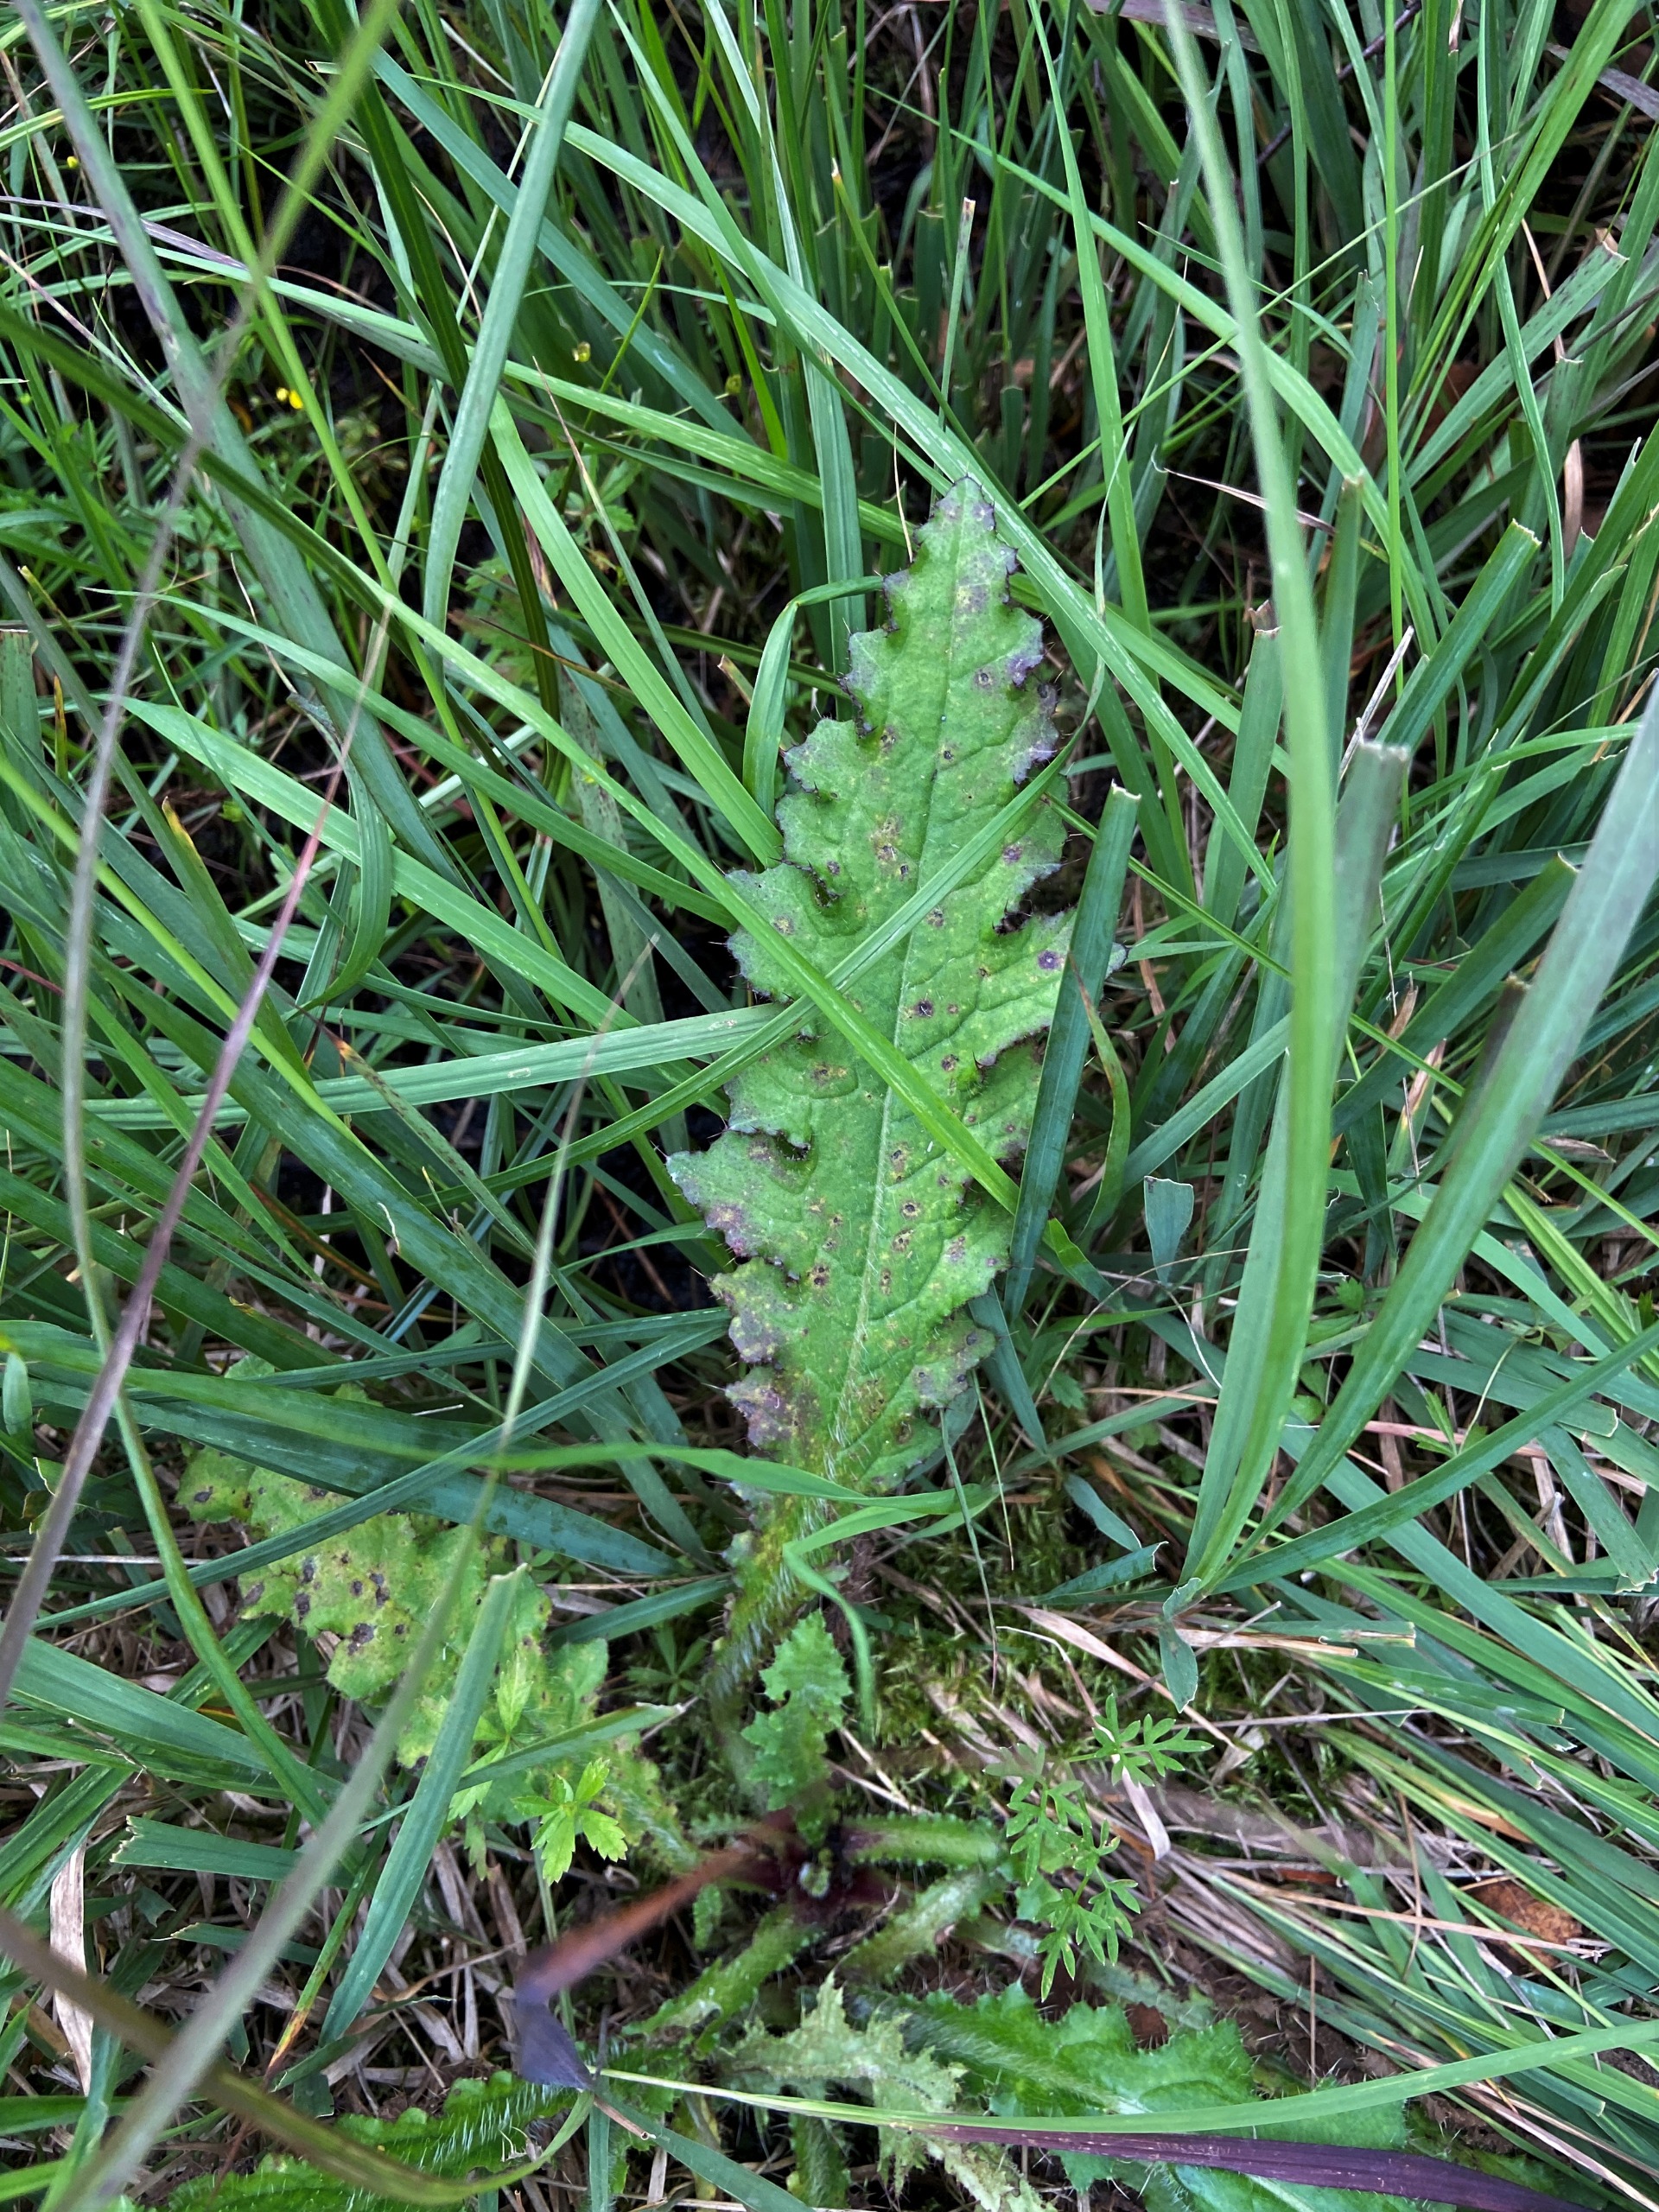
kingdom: Plantae
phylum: Tracheophyta
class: Magnoliopsida
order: Asterales
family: Asteraceae
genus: Cirsium
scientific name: Cirsium palustre
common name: Kær-tidsel
